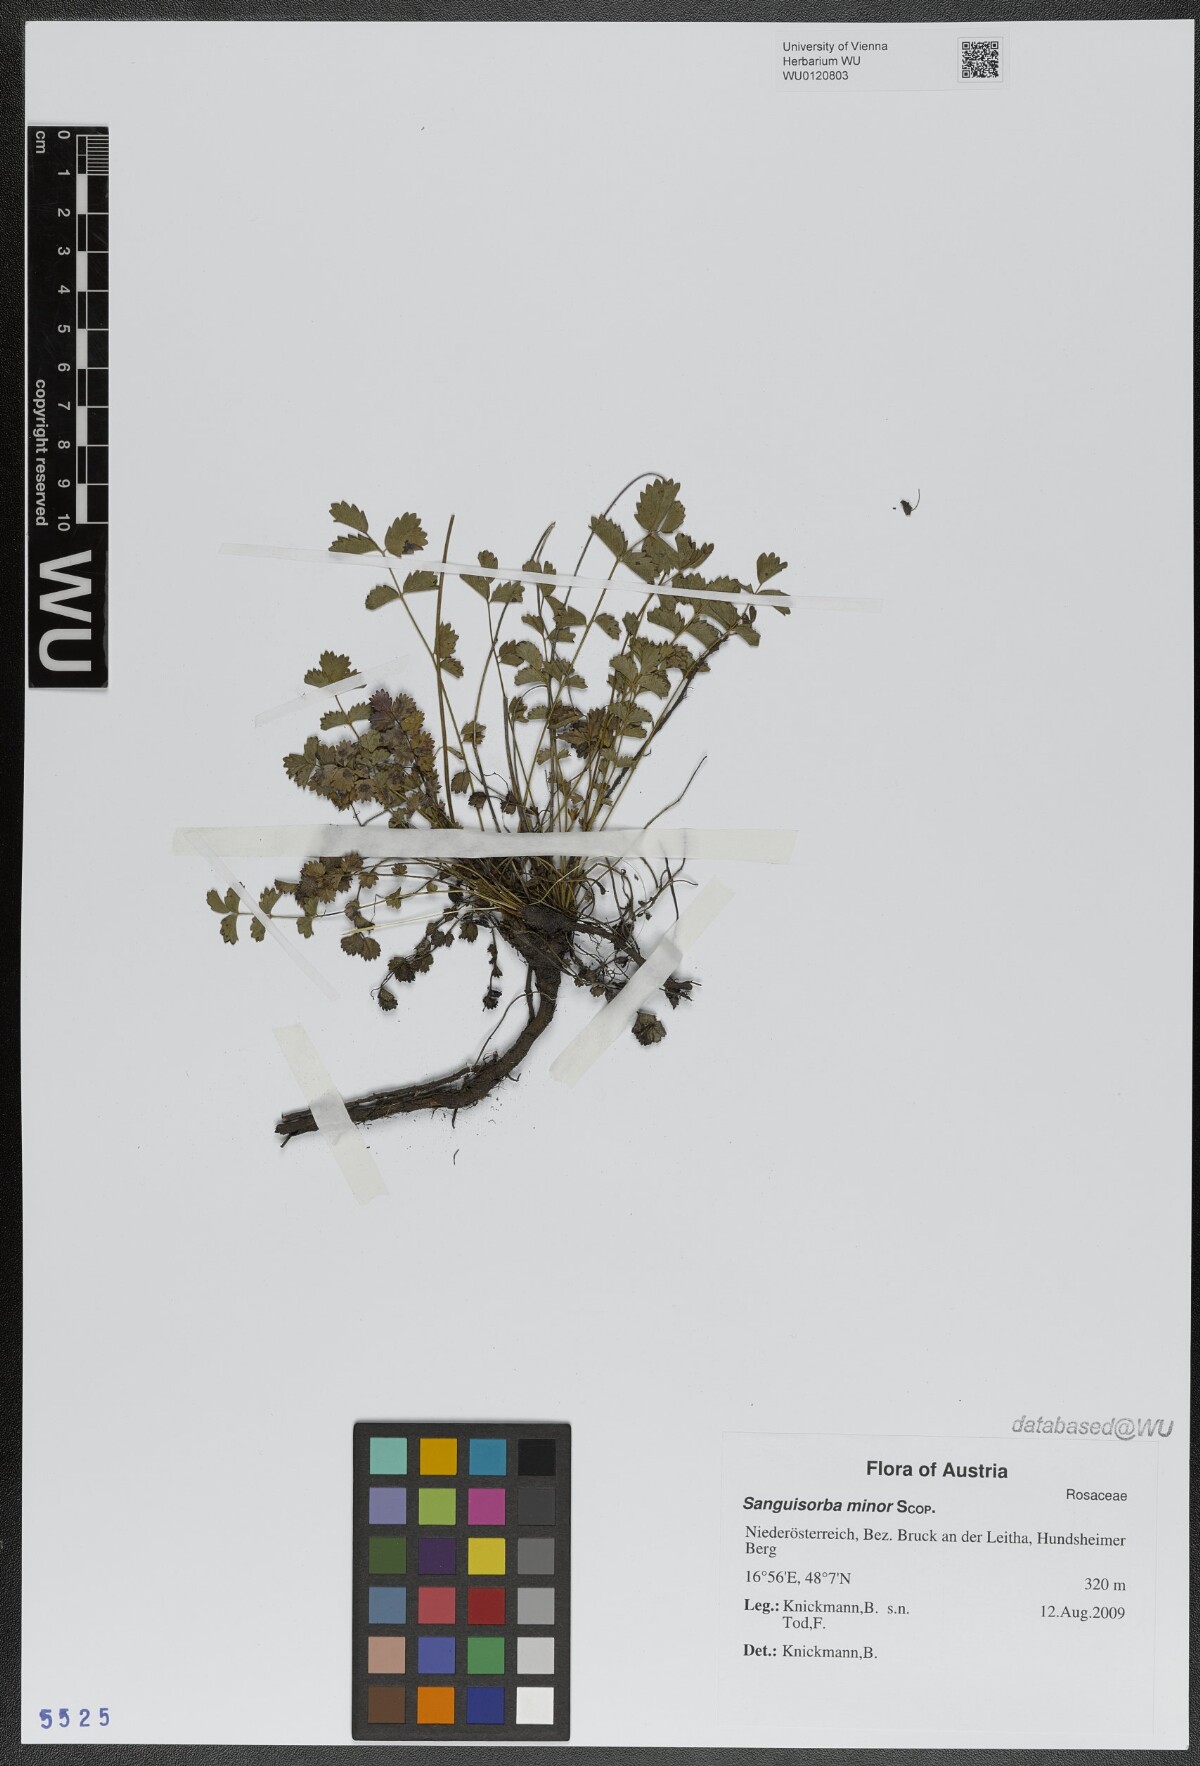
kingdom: Plantae
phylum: Tracheophyta
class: Magnoliopsida
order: Rosales
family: Rosaceae
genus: Poterium
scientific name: Poterium sanguisorba
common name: Salad burnet
